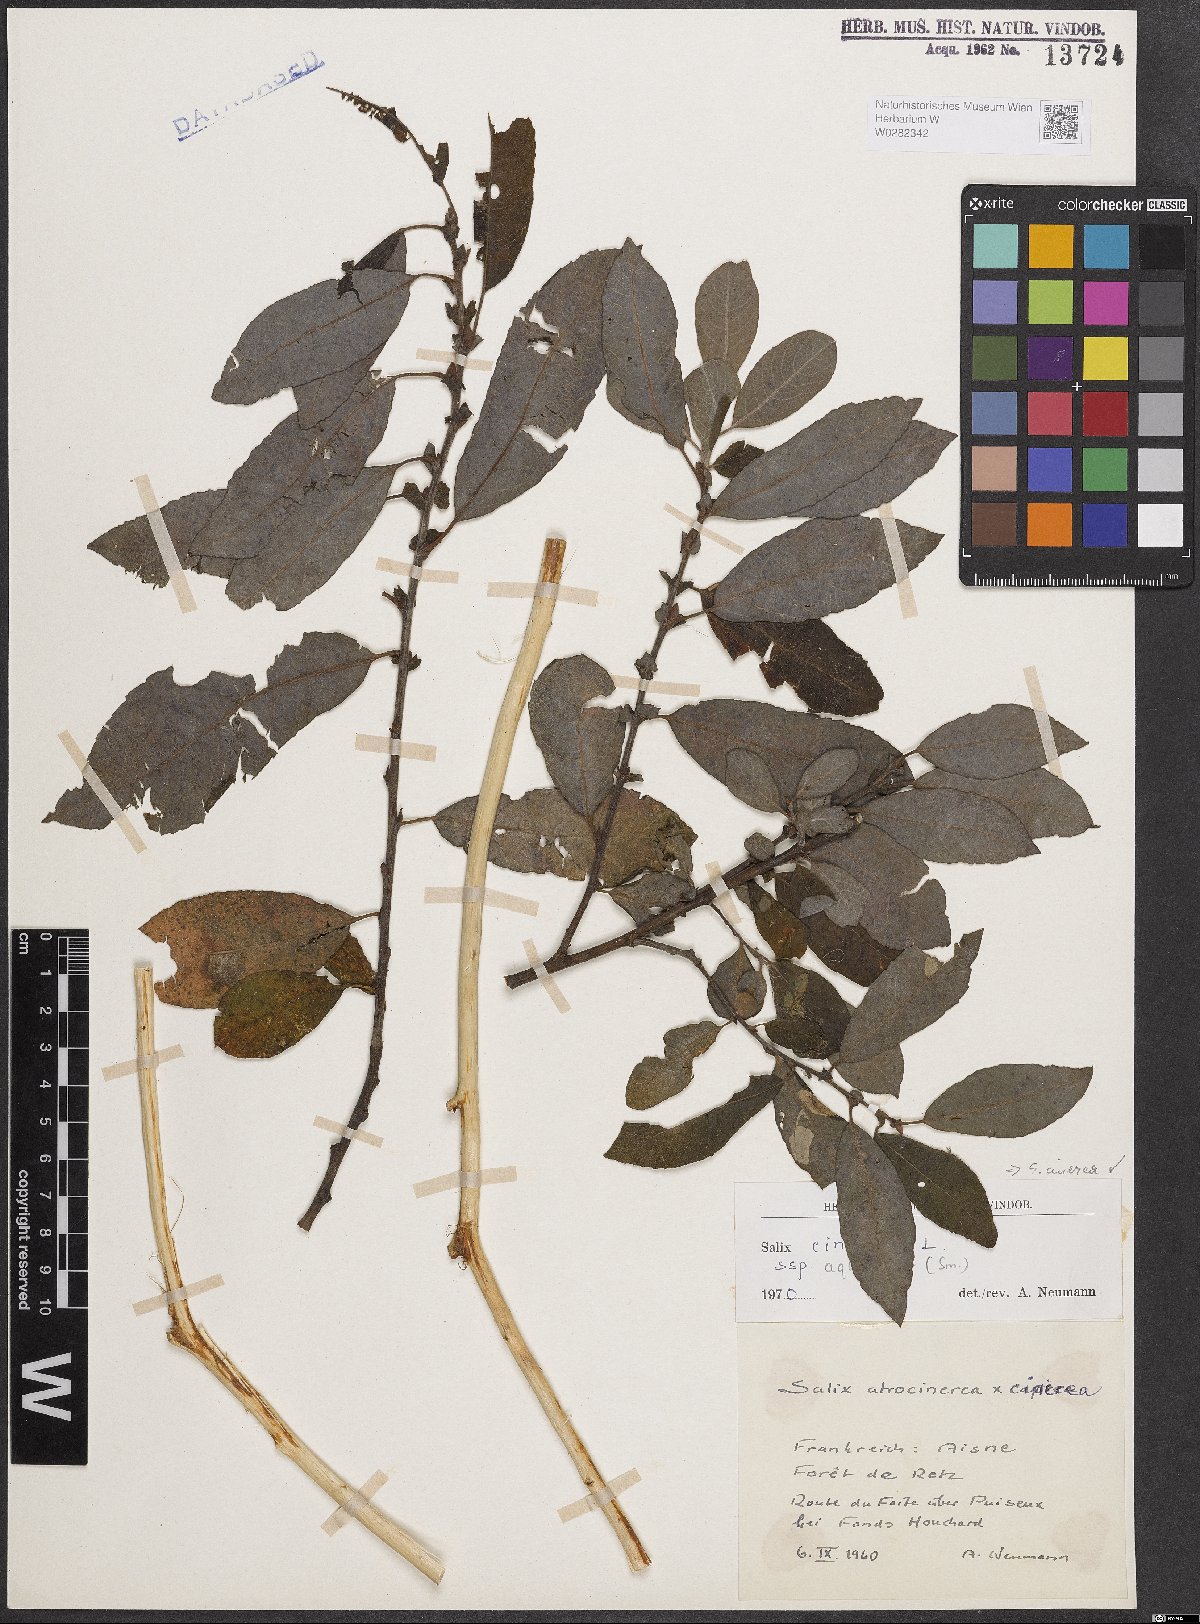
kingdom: Plantae
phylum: Tracheophyta
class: Magnoliopsida
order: Malpighiales
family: Salicaceae
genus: Salix
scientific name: Salix cinerea
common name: Common sallow
